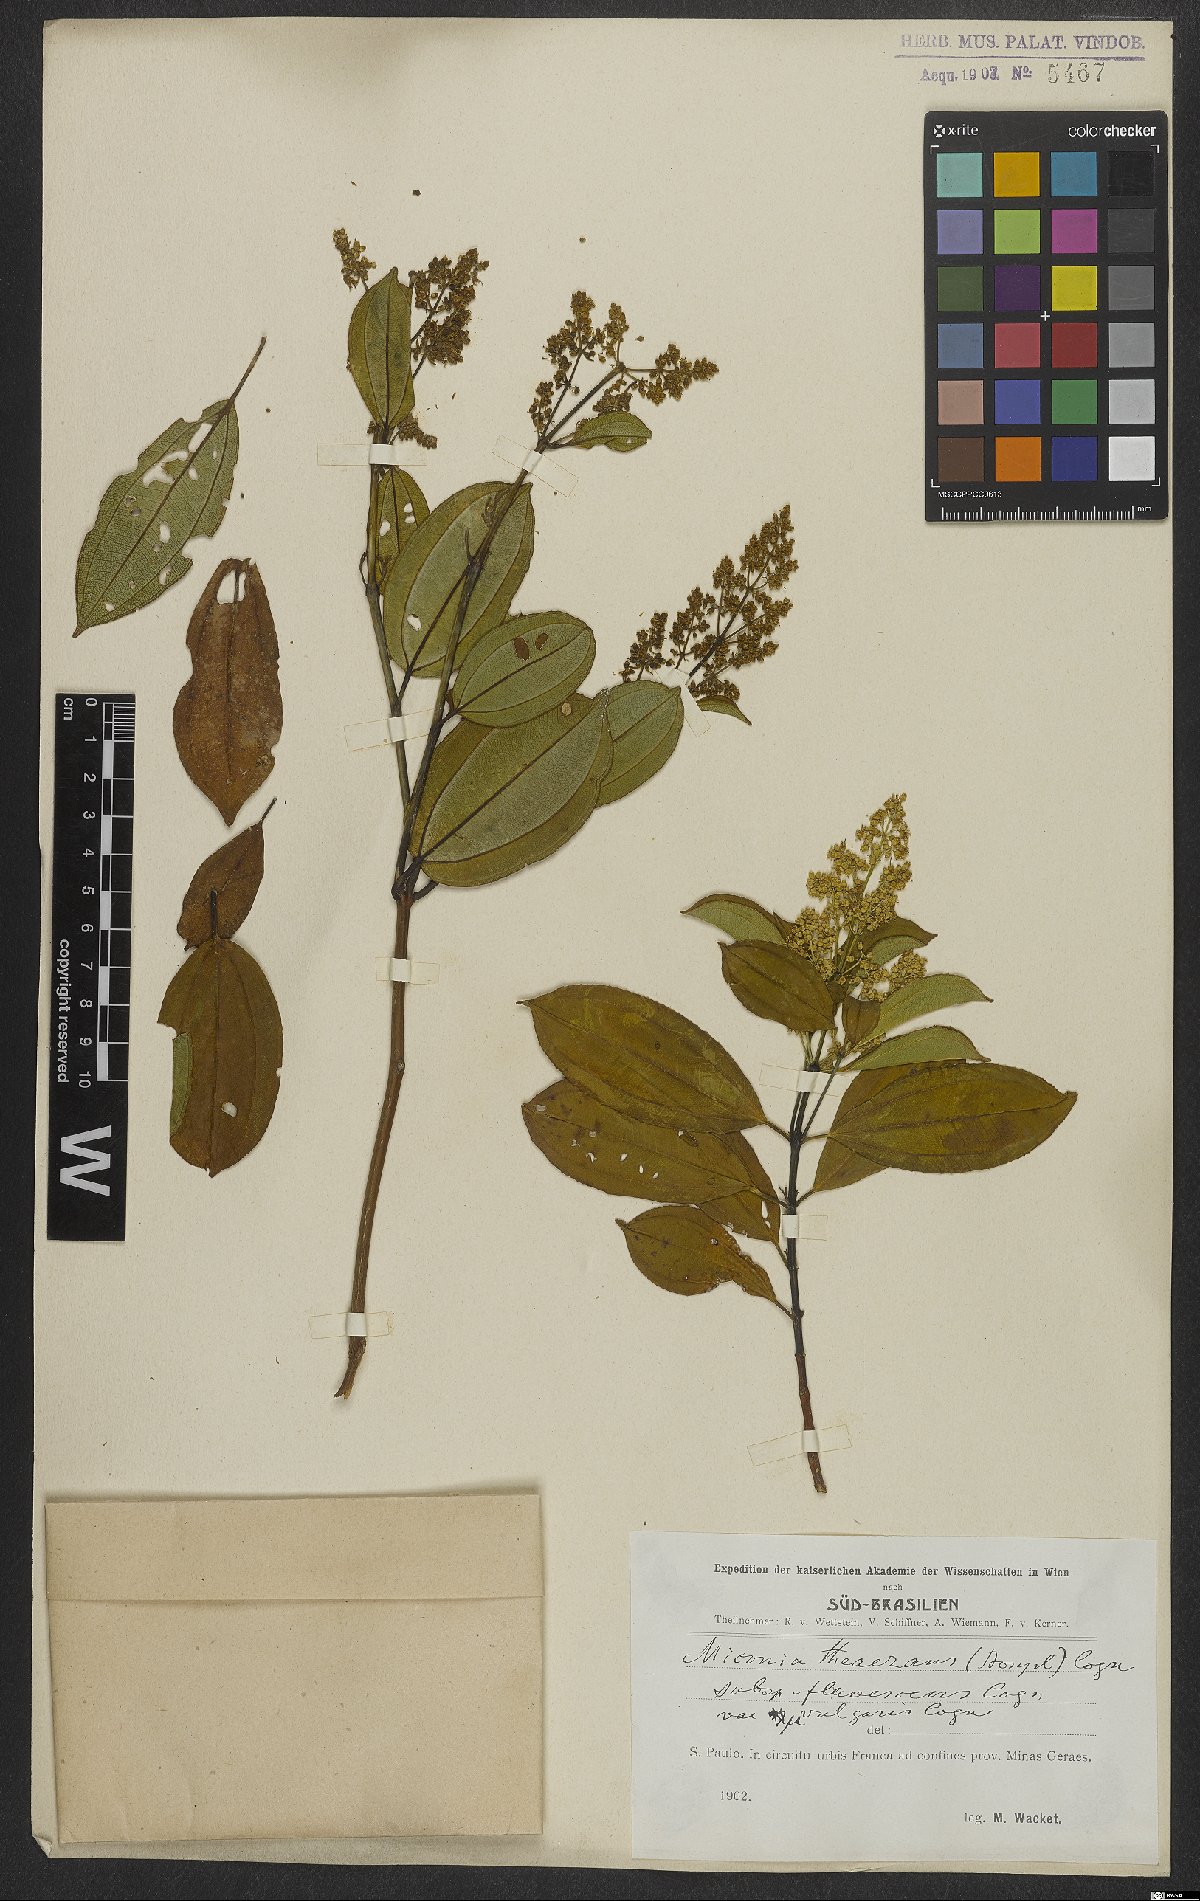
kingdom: Plantae
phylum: Tracheophyta
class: Magnoliopsida
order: Myrtales
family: Melastomataceae
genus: Miconia
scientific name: Miconia theizans
